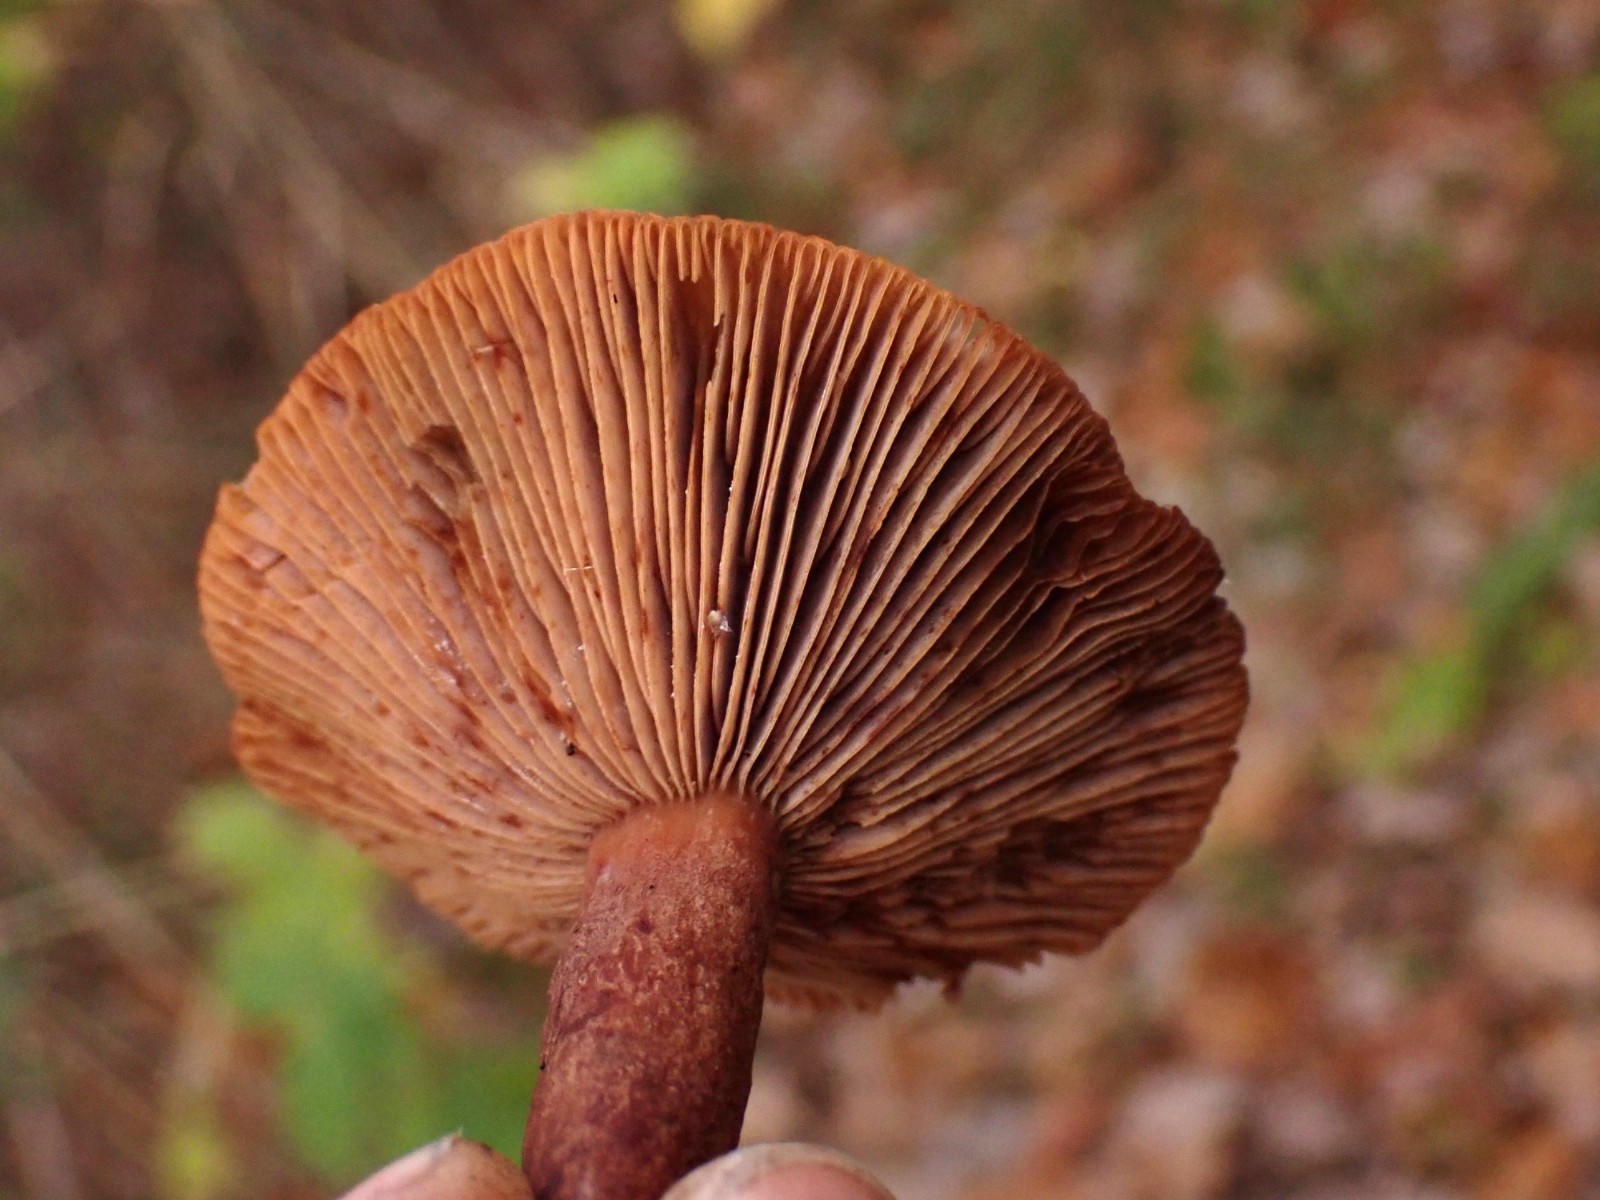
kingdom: Fungi
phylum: Basidiomycota
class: Agaricomycetes
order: Russulales
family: Russulaceae
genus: Lactarius
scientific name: Lactarius camphoratus
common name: kamfer-mælkehat
